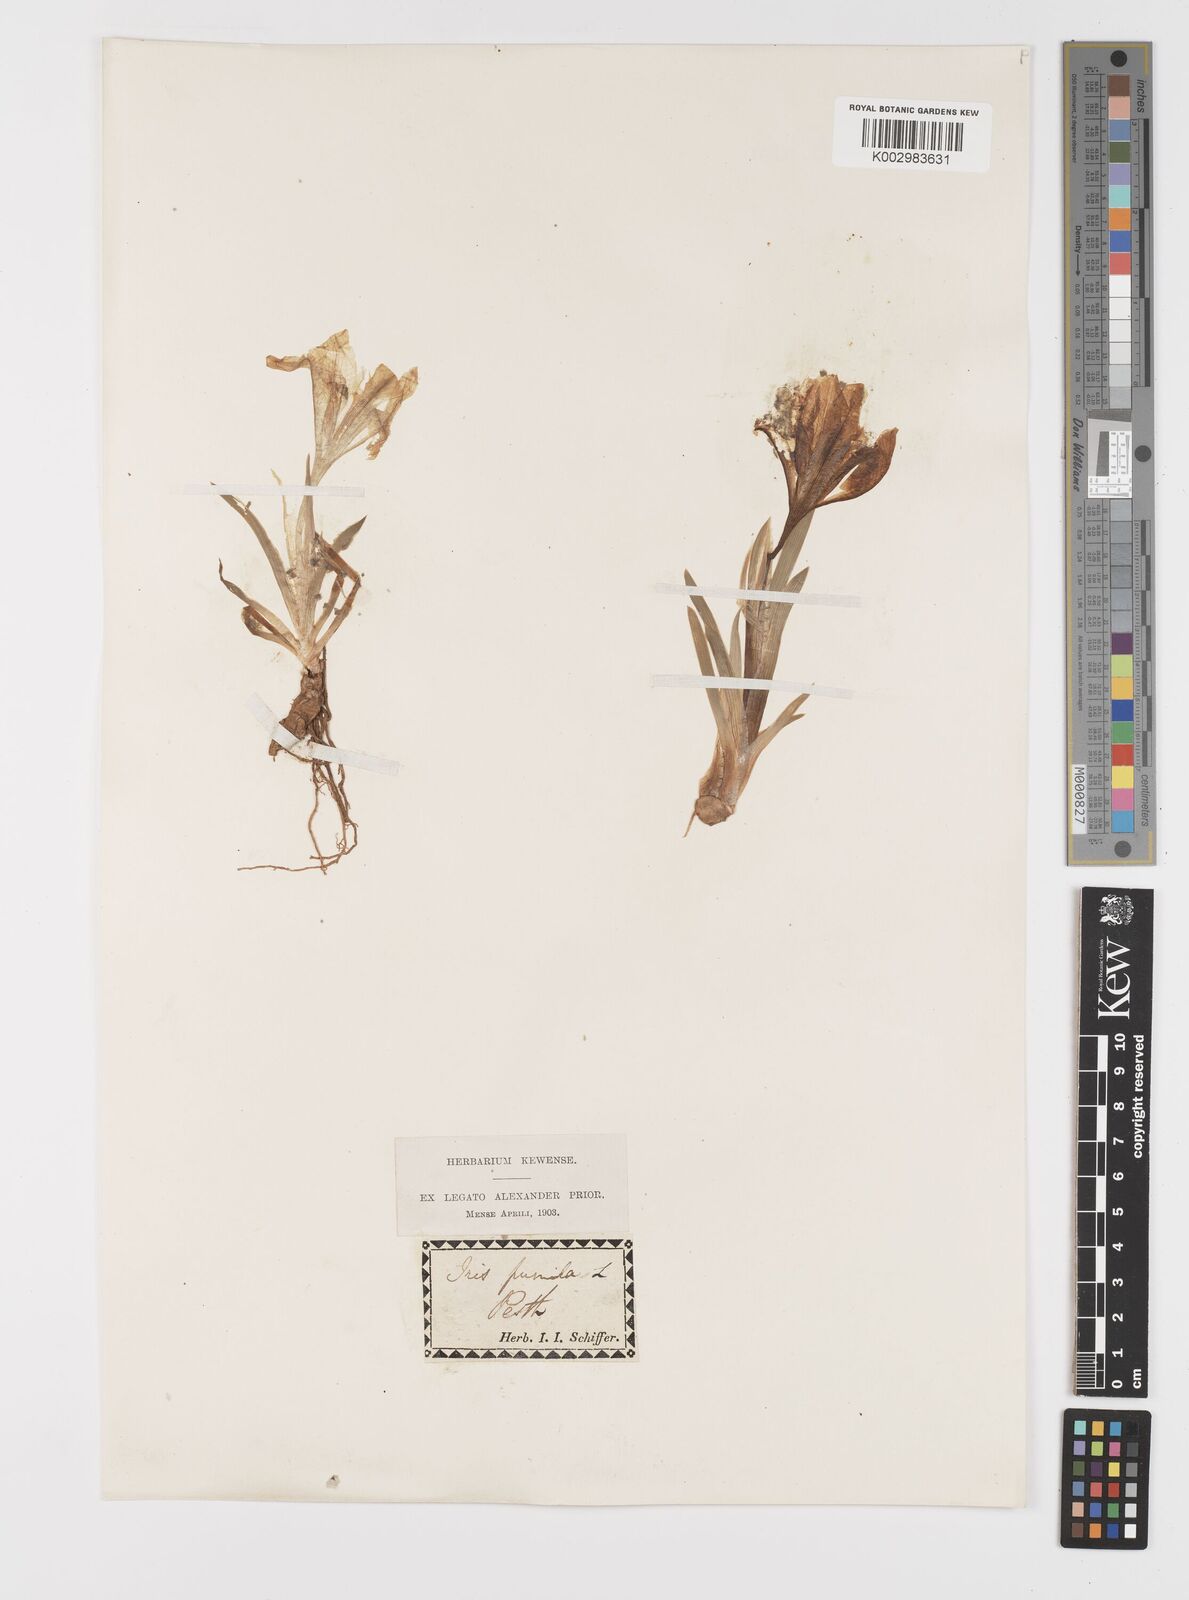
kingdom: Plantae
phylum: Tracheophyta
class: Liliopsida
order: Asparagales
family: Iridaceae
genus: Iris
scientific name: Iris pumila
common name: Dwarf iris
